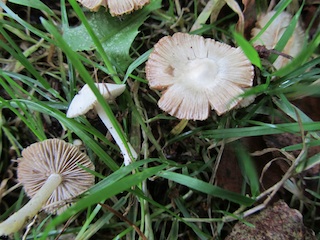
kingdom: Fungi
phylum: Basidiomycota
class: Agaricomycetes
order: Agaricales
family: Inocybaceae
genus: Inocybe
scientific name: Inocybe
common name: almindelig trævlhat
